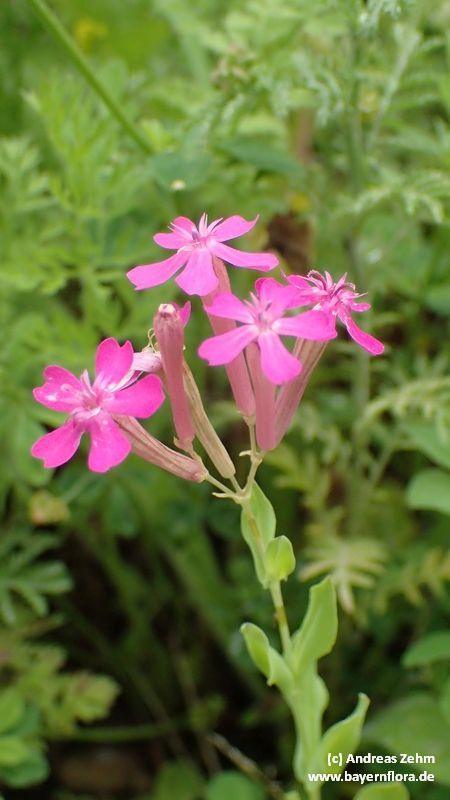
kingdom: Plantae
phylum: Tracheophyta
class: Magnoliopsida
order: Caryophyllales
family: Caryophyllaceae
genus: Atocion
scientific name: Atocion armeria
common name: Sweet william catchfly
